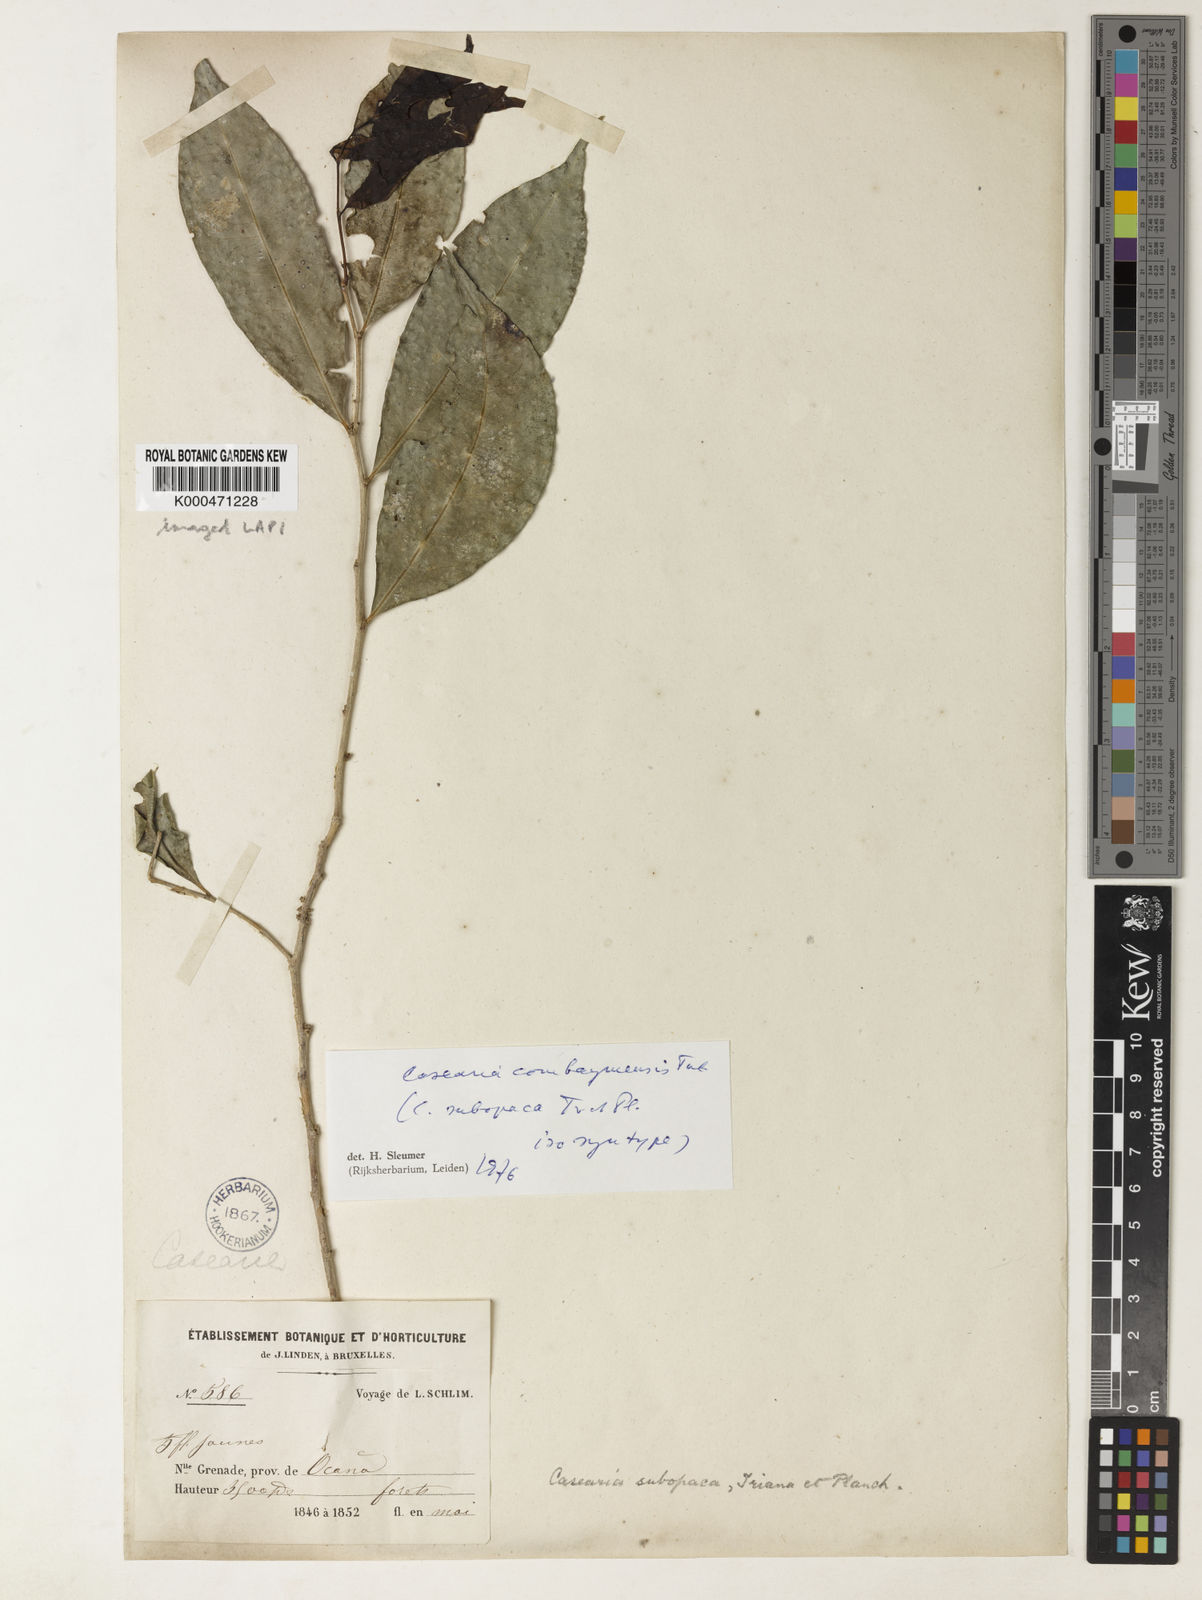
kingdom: Plantae
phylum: Tracheophyta
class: Magnoliopsida
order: Malpighiales
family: Salicaceae
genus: Casearia
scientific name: Casearia combaymensis
